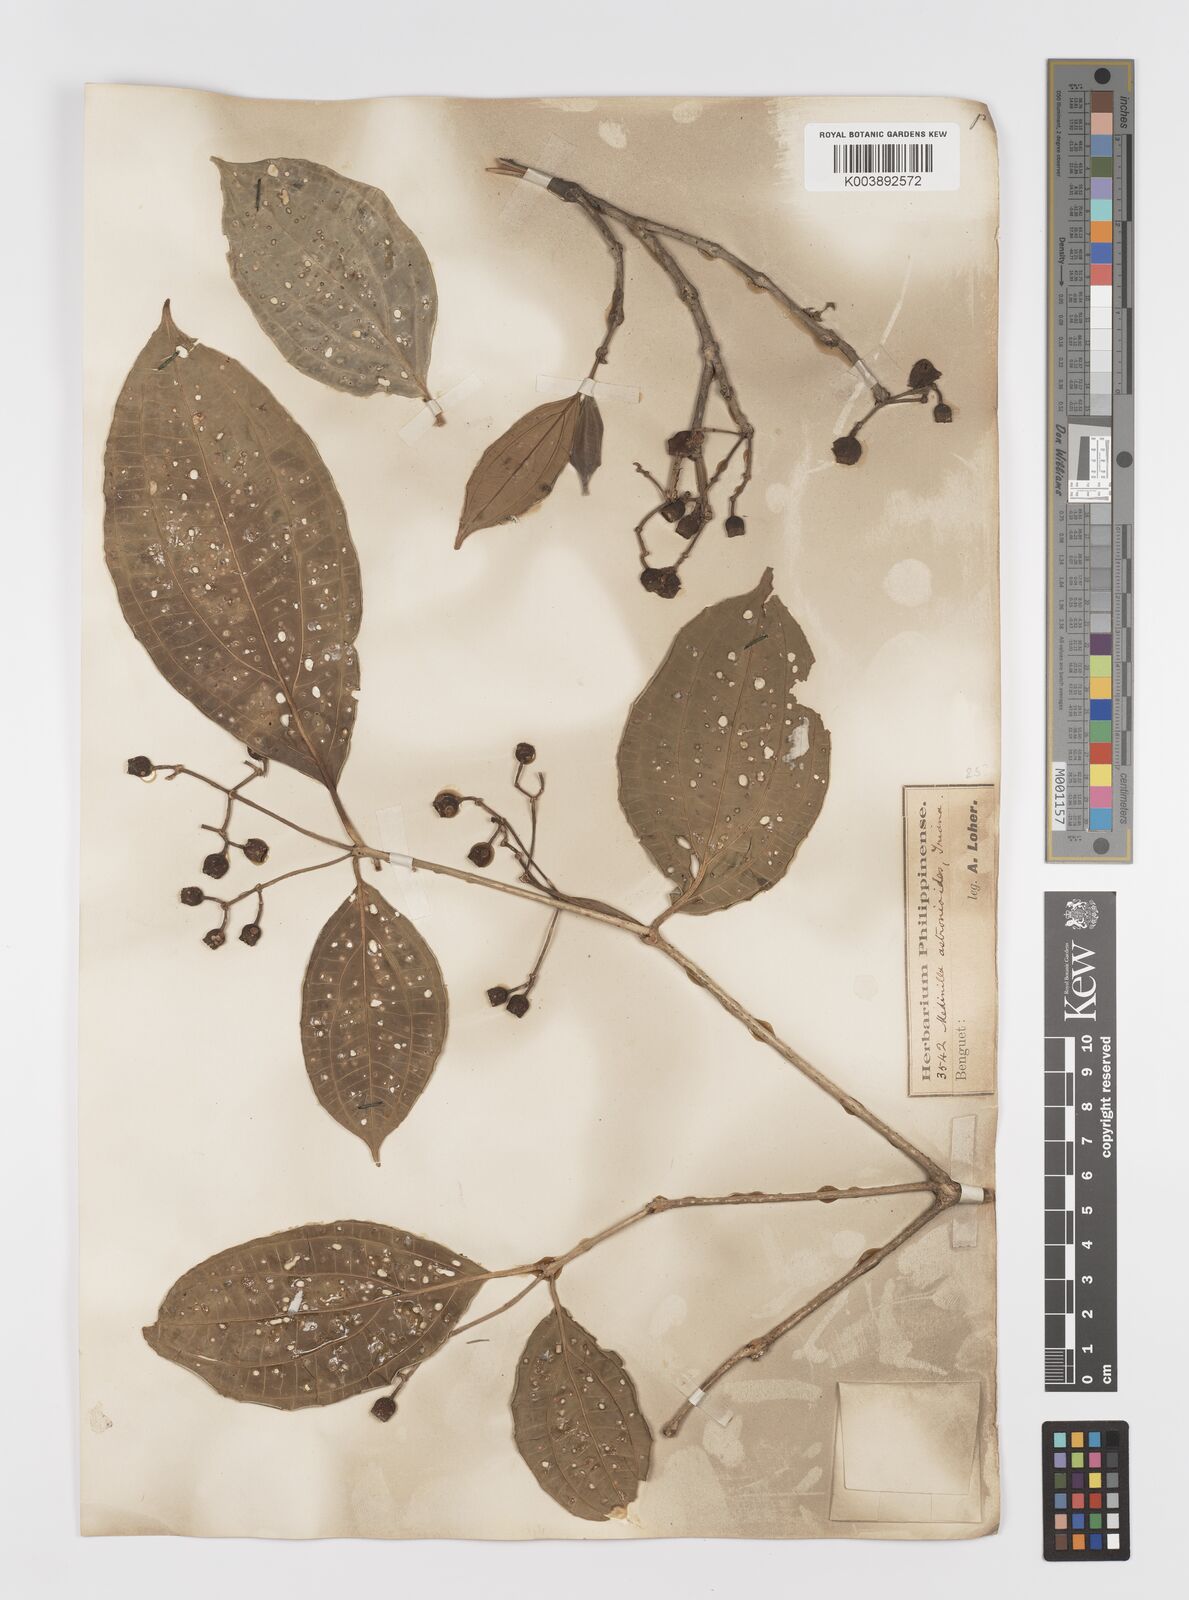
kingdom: Plantae
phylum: Tracheophyta
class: Magnoliopsida
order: Myrtales
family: Melastomataceae
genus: Medinilla
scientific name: Medinilla astronioides
